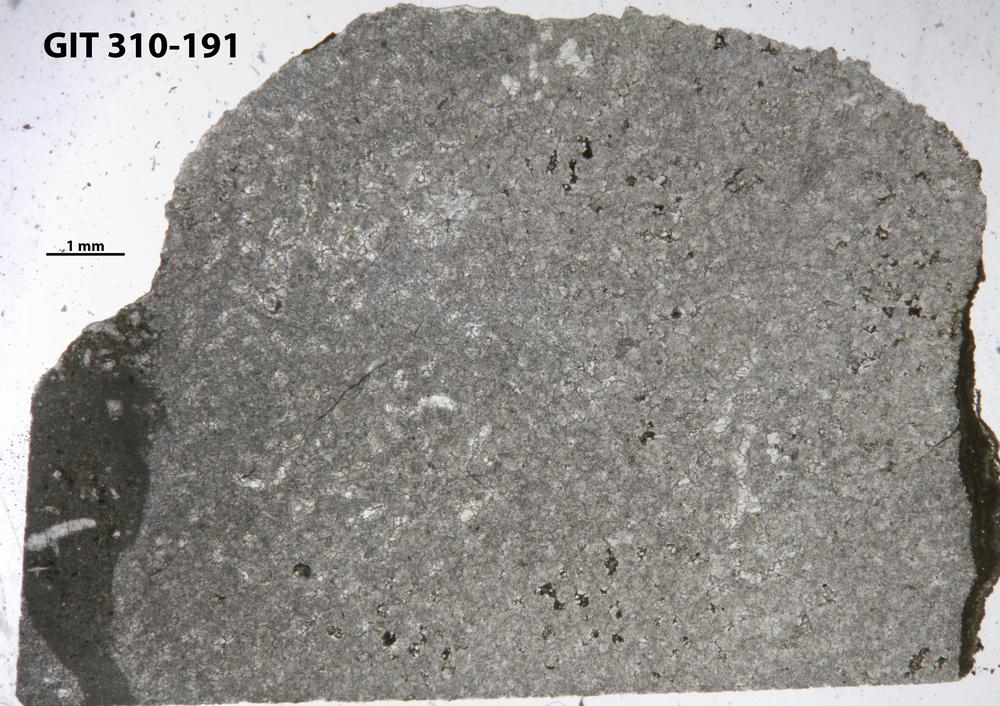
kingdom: Animalia
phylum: Porifera
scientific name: Porifera
